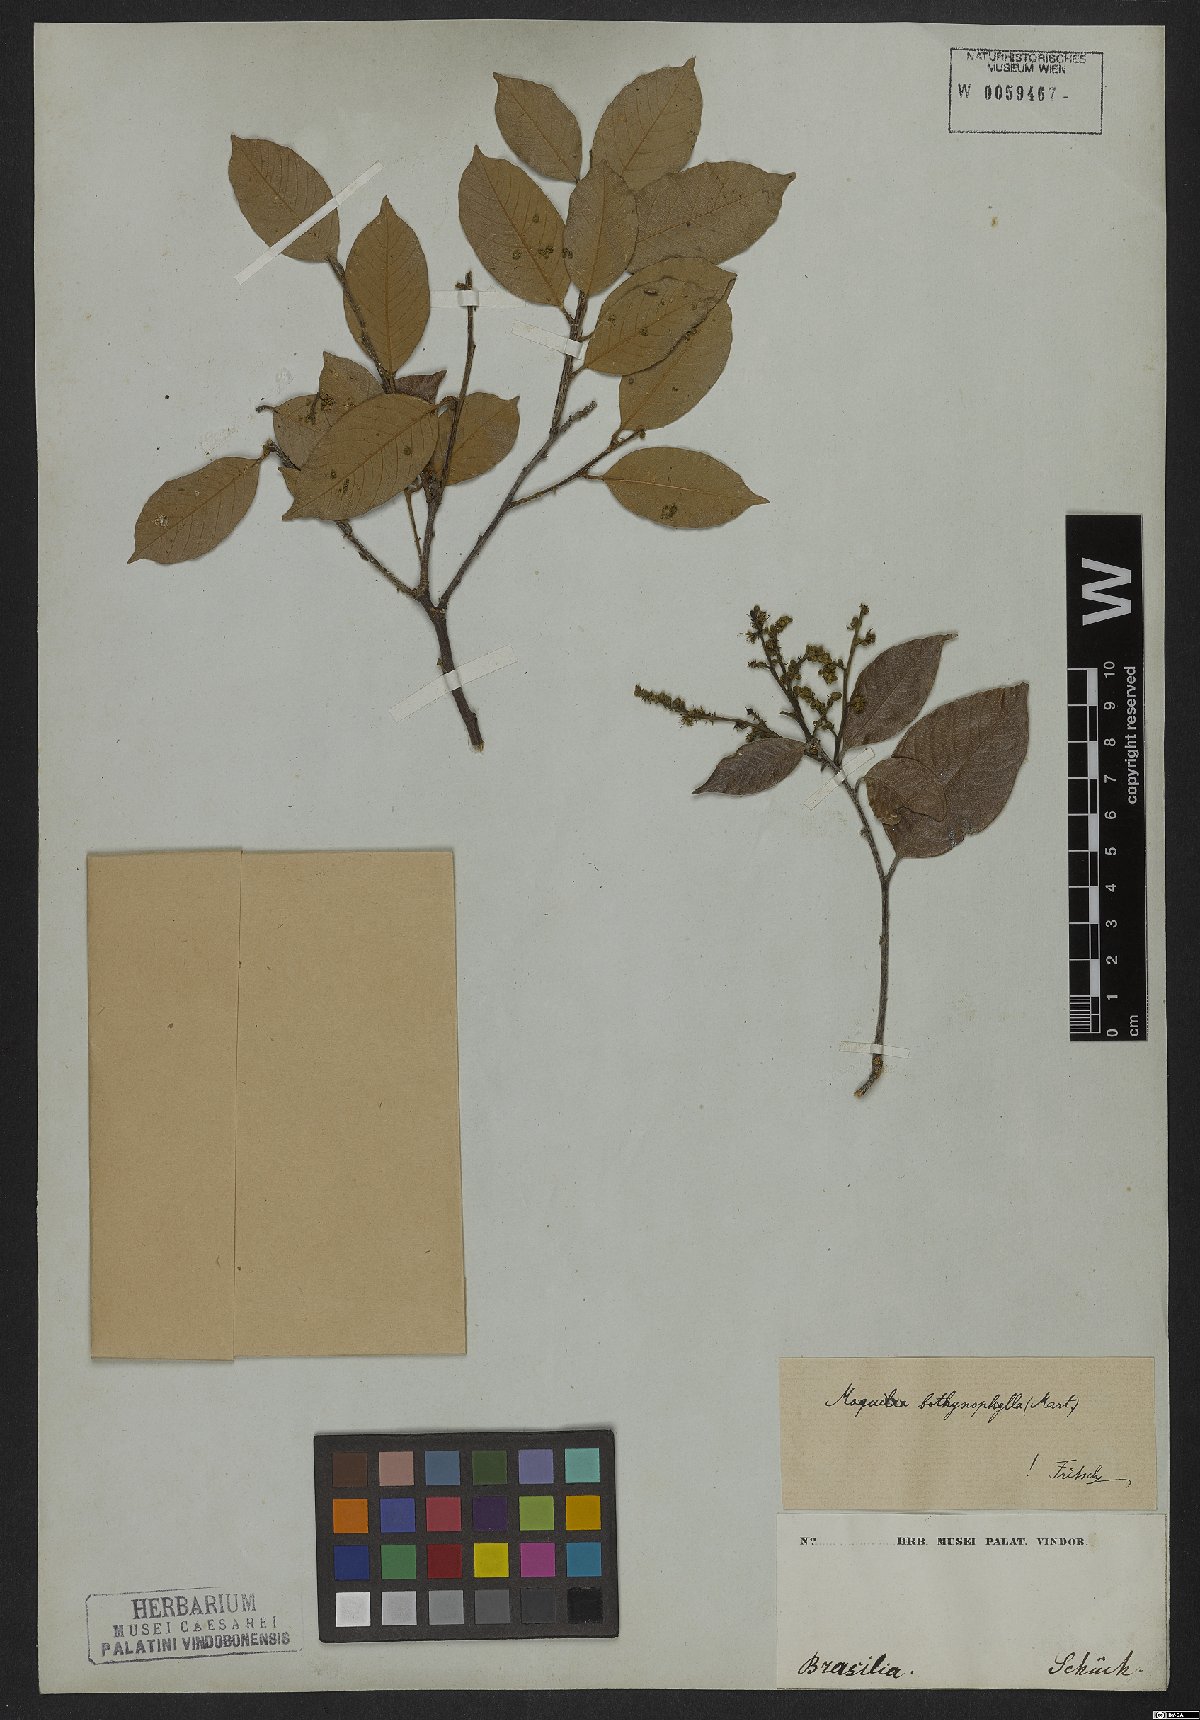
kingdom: Plantae
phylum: Tracheophyta
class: Magnoliopsida
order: Malpighiales
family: Chrysobalanaceae
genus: Leptobalanus
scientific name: Leptobalanus octandrus
